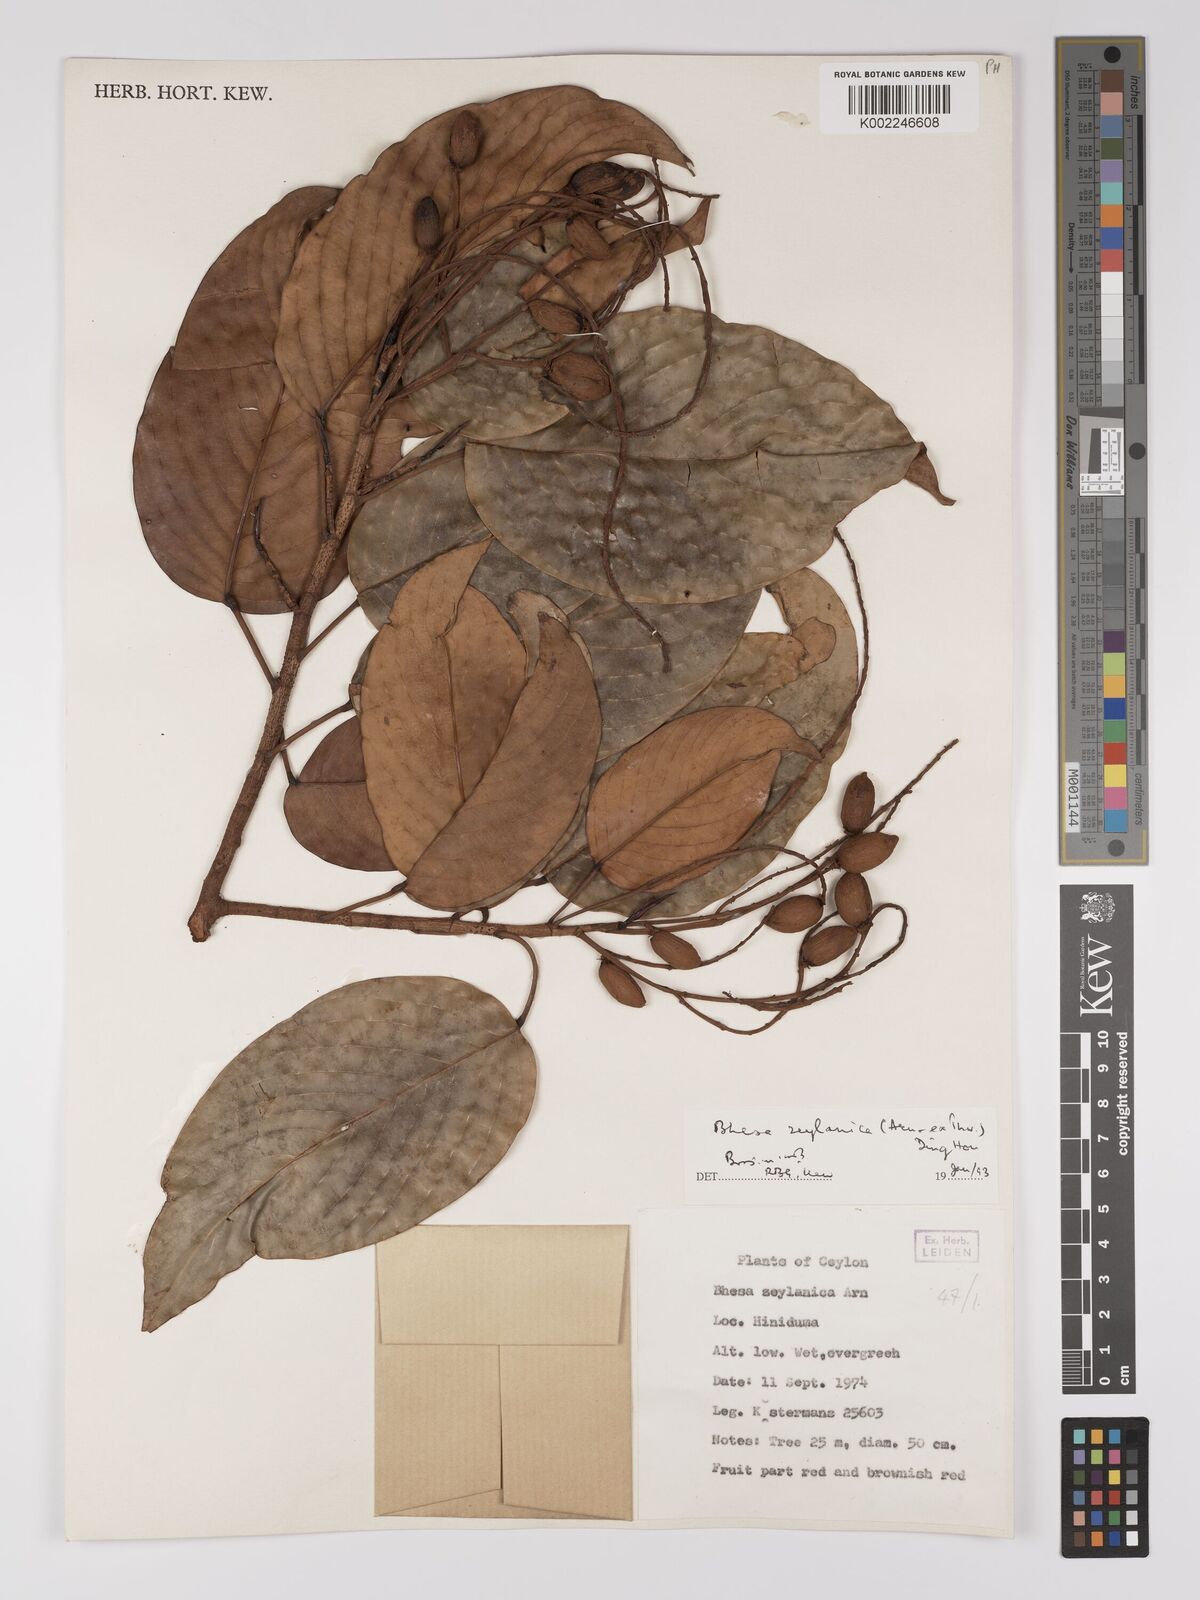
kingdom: Plantae
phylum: Tracheophyta
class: Magnoliopsida
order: Malpighiales
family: Centroplacaceae
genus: Bhesa
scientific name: Bhesa ceylanica
